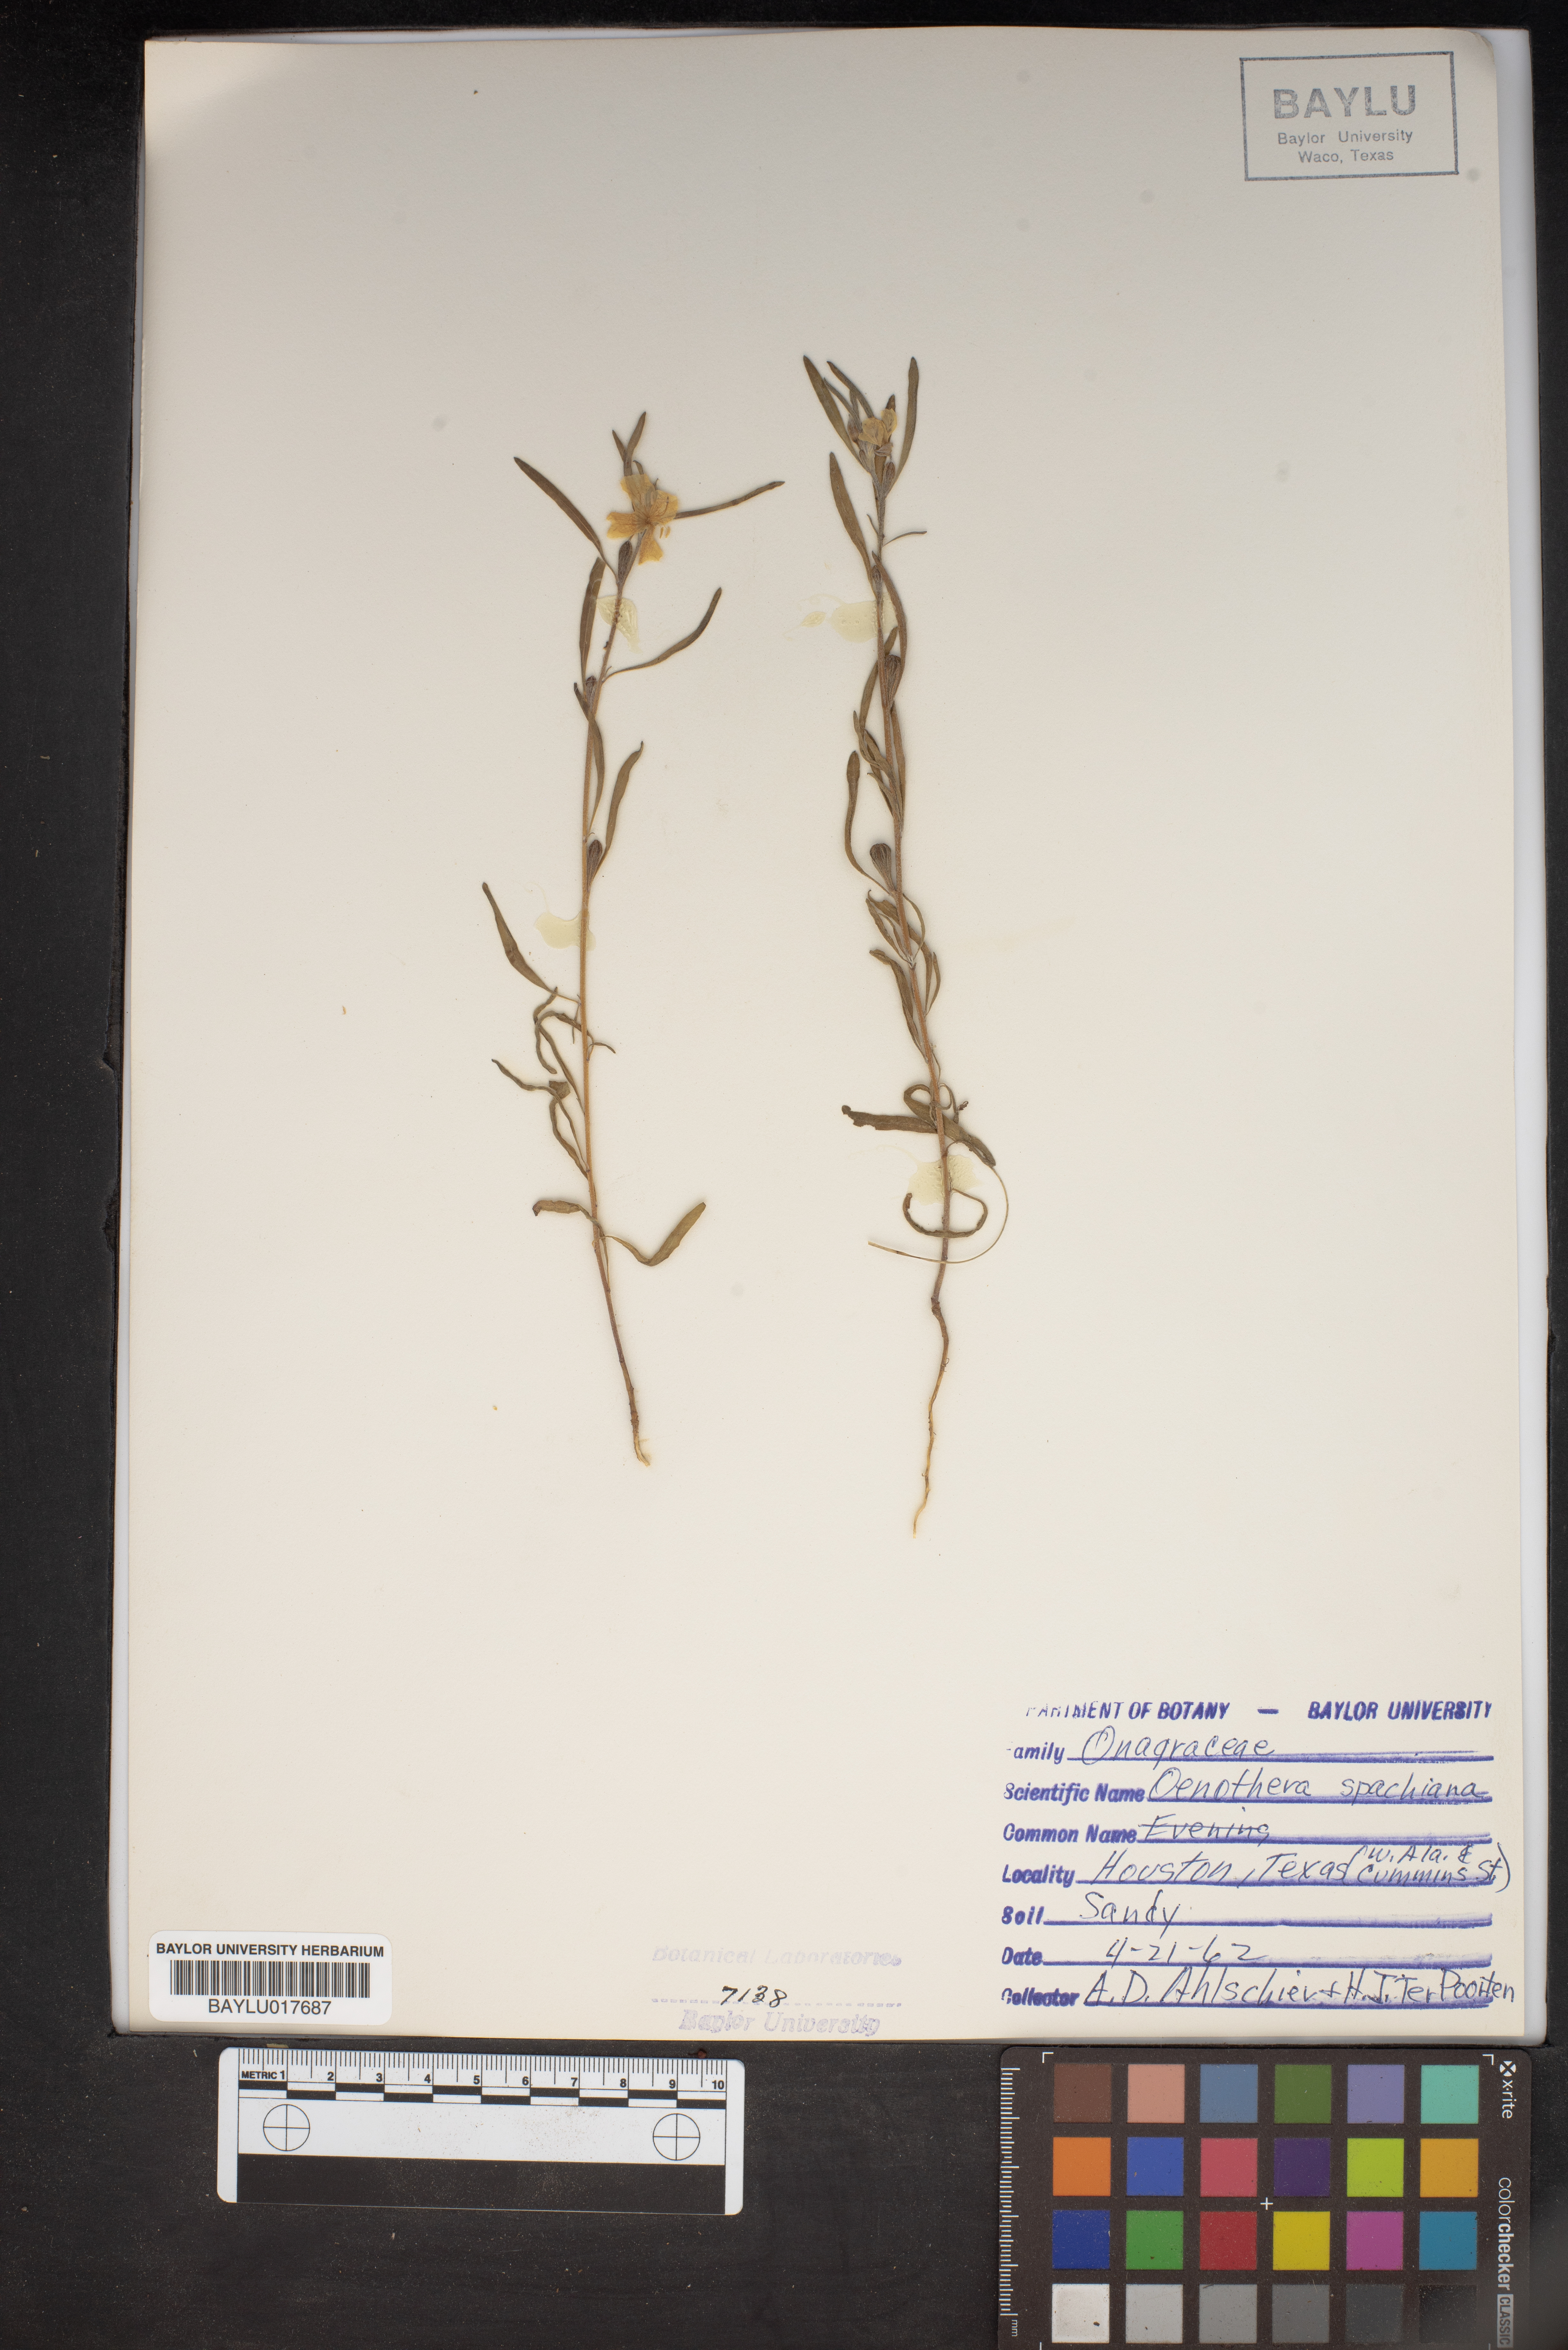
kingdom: Plantae
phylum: Tracheophyta
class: Magnoliopsida
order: Myrtales
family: Onagraceae
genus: Oenothera
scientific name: Oenothera spachiana
